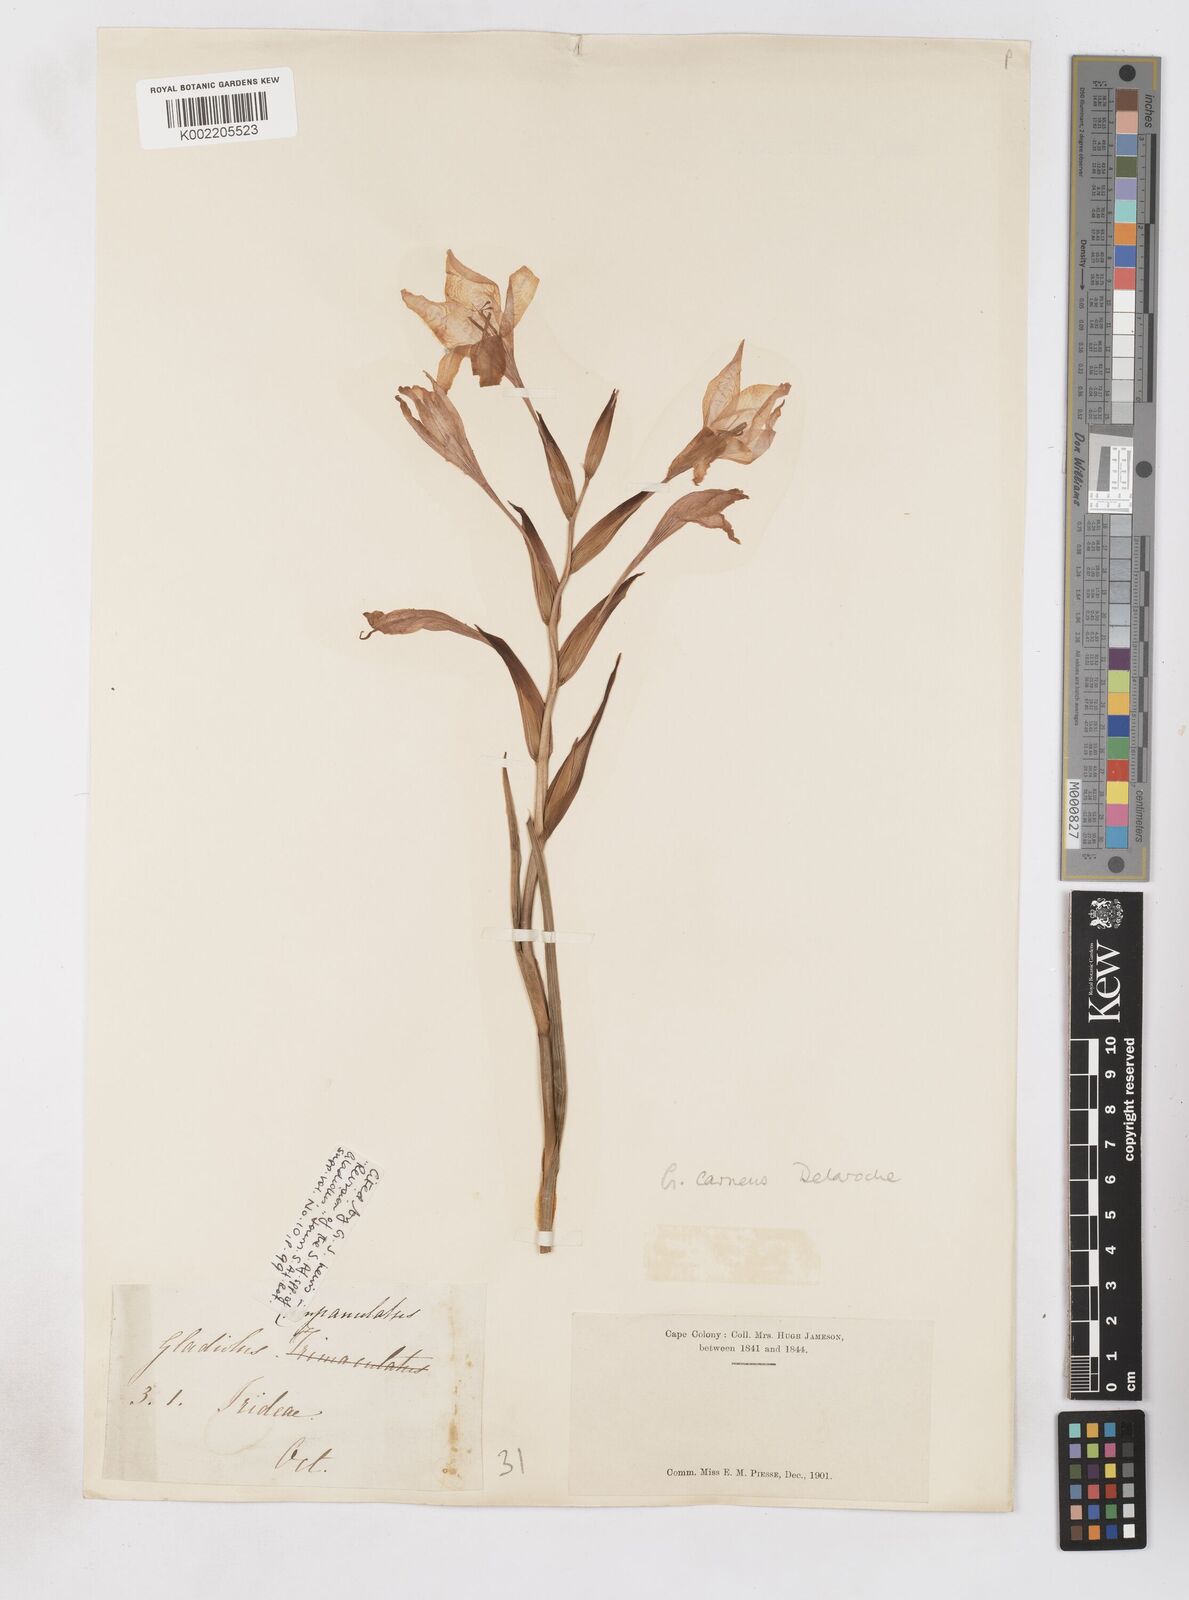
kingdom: Plantae
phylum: Tracheophyta
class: Liliopsida
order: Asparagales
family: Iridaceae
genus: Gladiolus
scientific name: Gladiolus carneus
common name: Painted-lady
